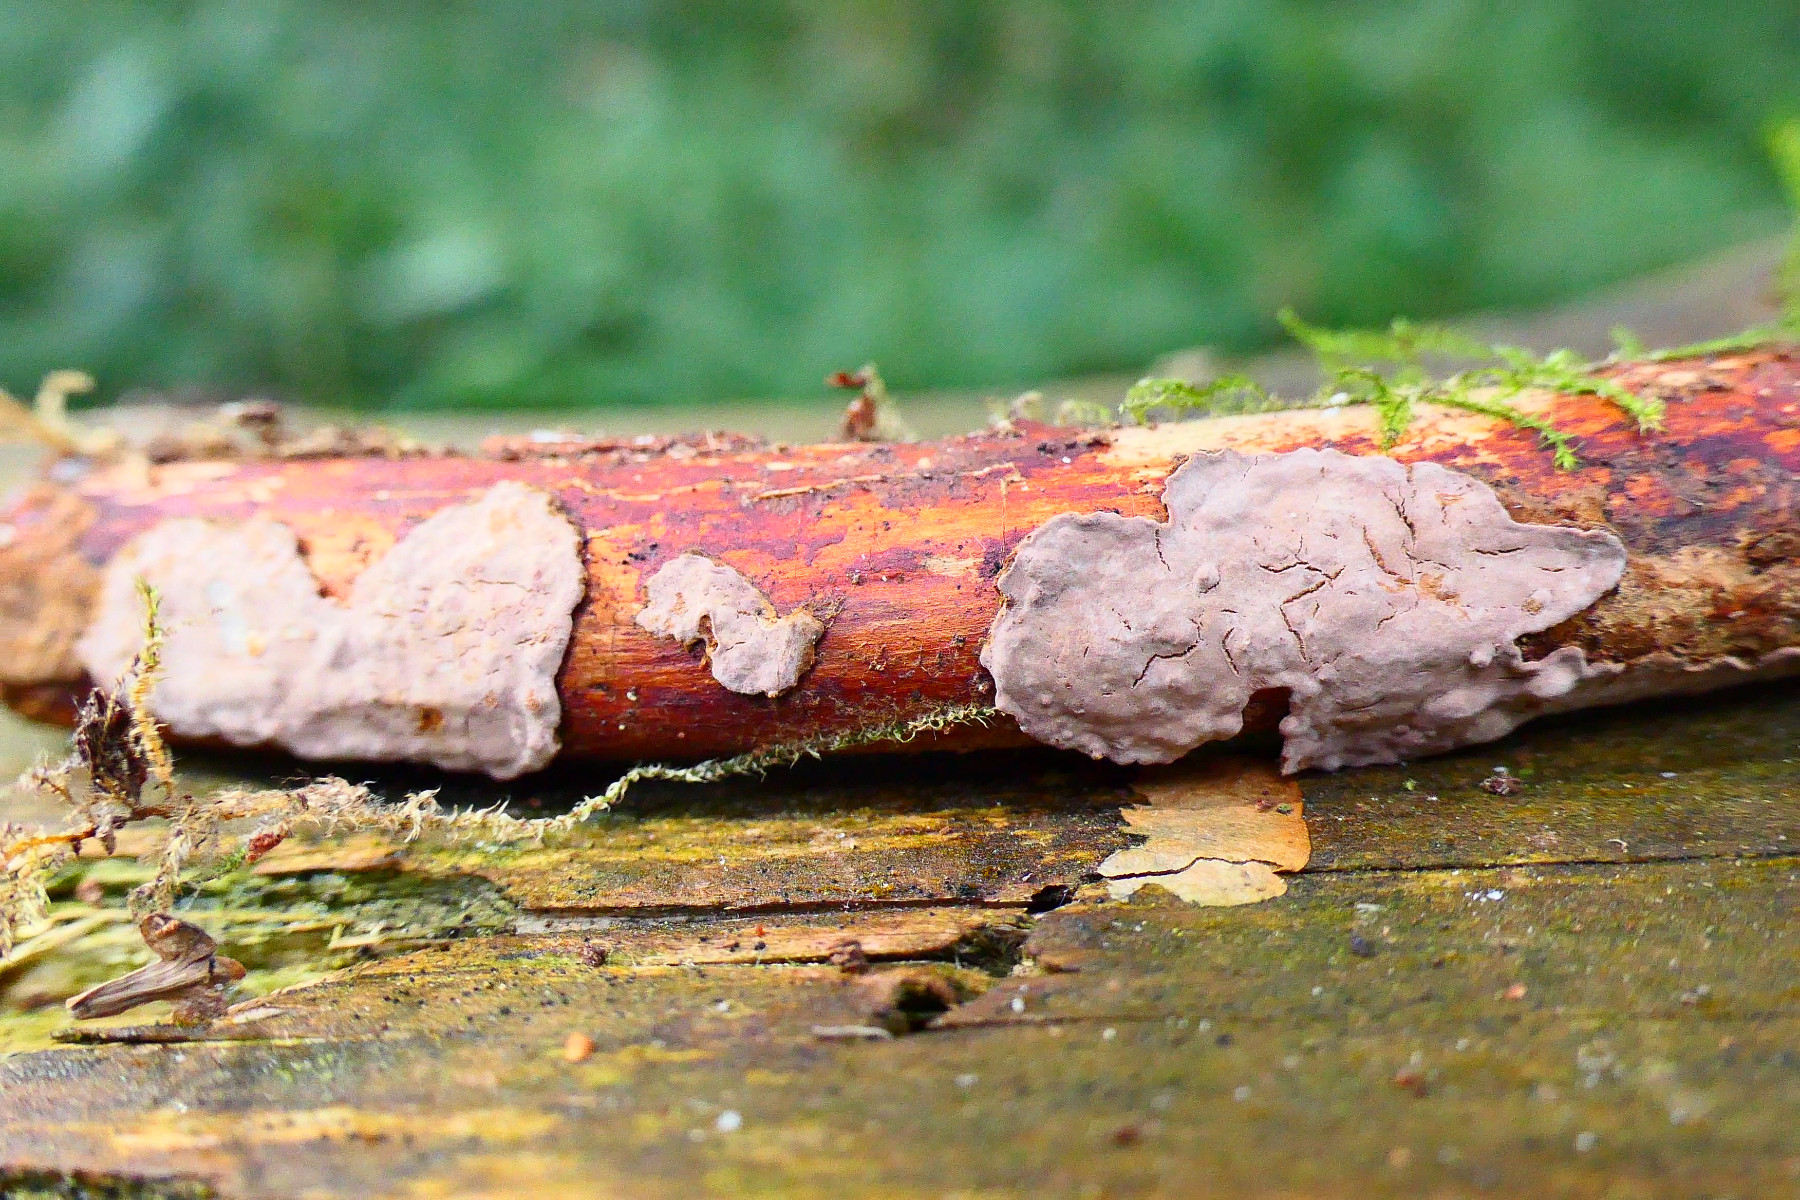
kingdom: Fungi
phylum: Basidiomycota
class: Agaricomycetes
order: Russulales
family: Echinodontiaceae
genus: Amylostereum
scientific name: Amylostereum chailletii
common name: gran-lædersvamp
